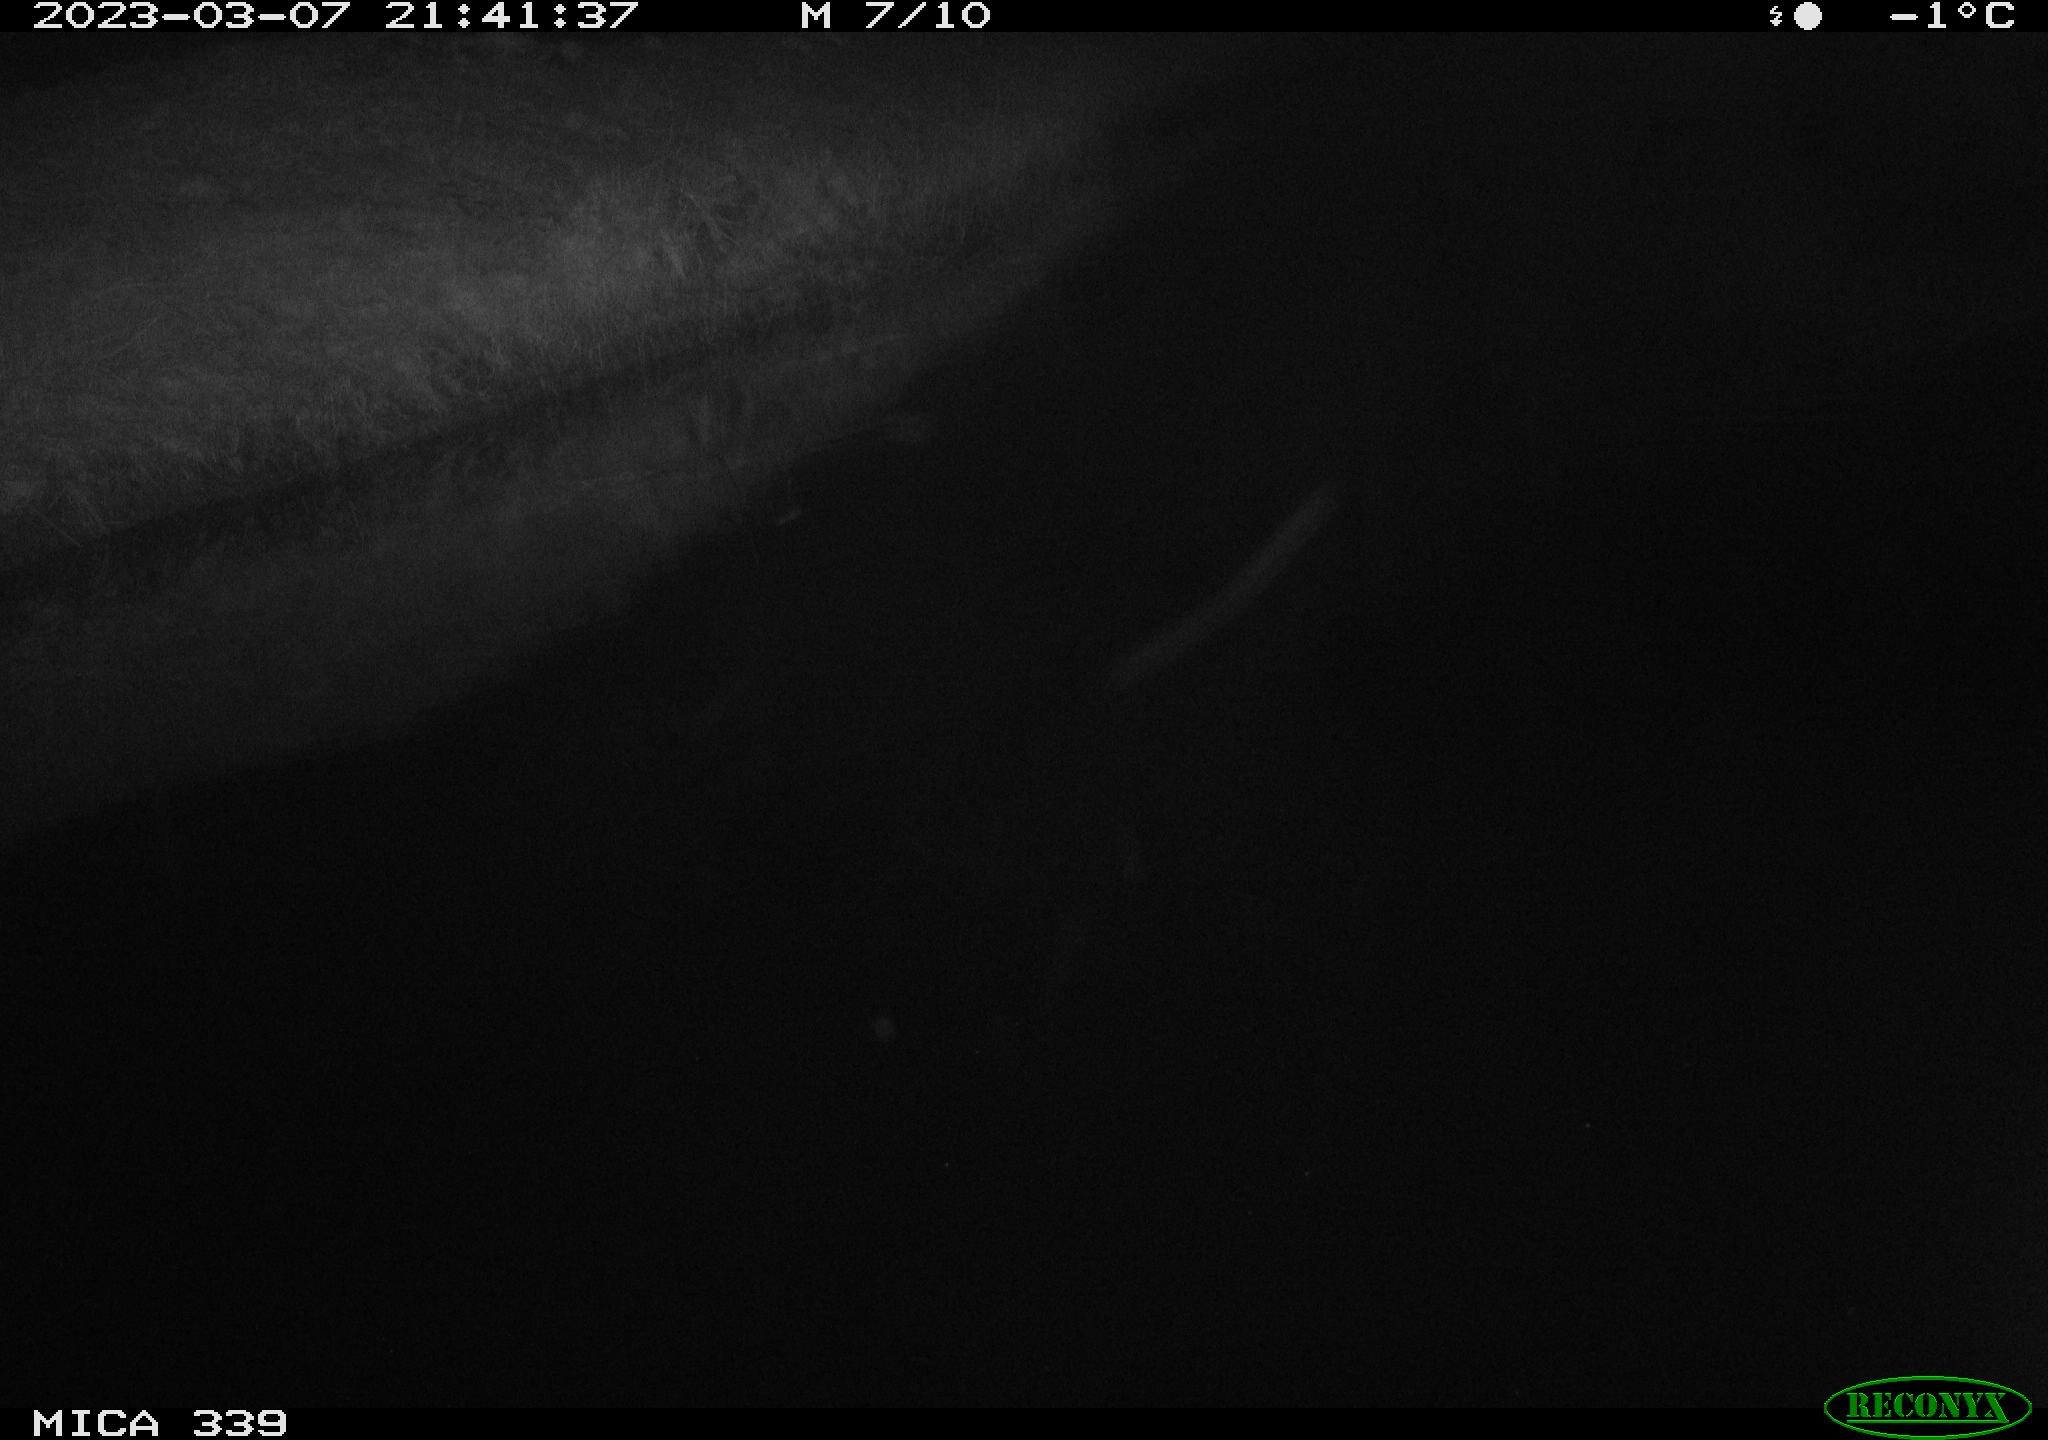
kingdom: Animalia
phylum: Chordata
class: Aves
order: Pelecaniformes
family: Ardeidae
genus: Ardea
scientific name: Ardea cinerea
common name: Grey heron
